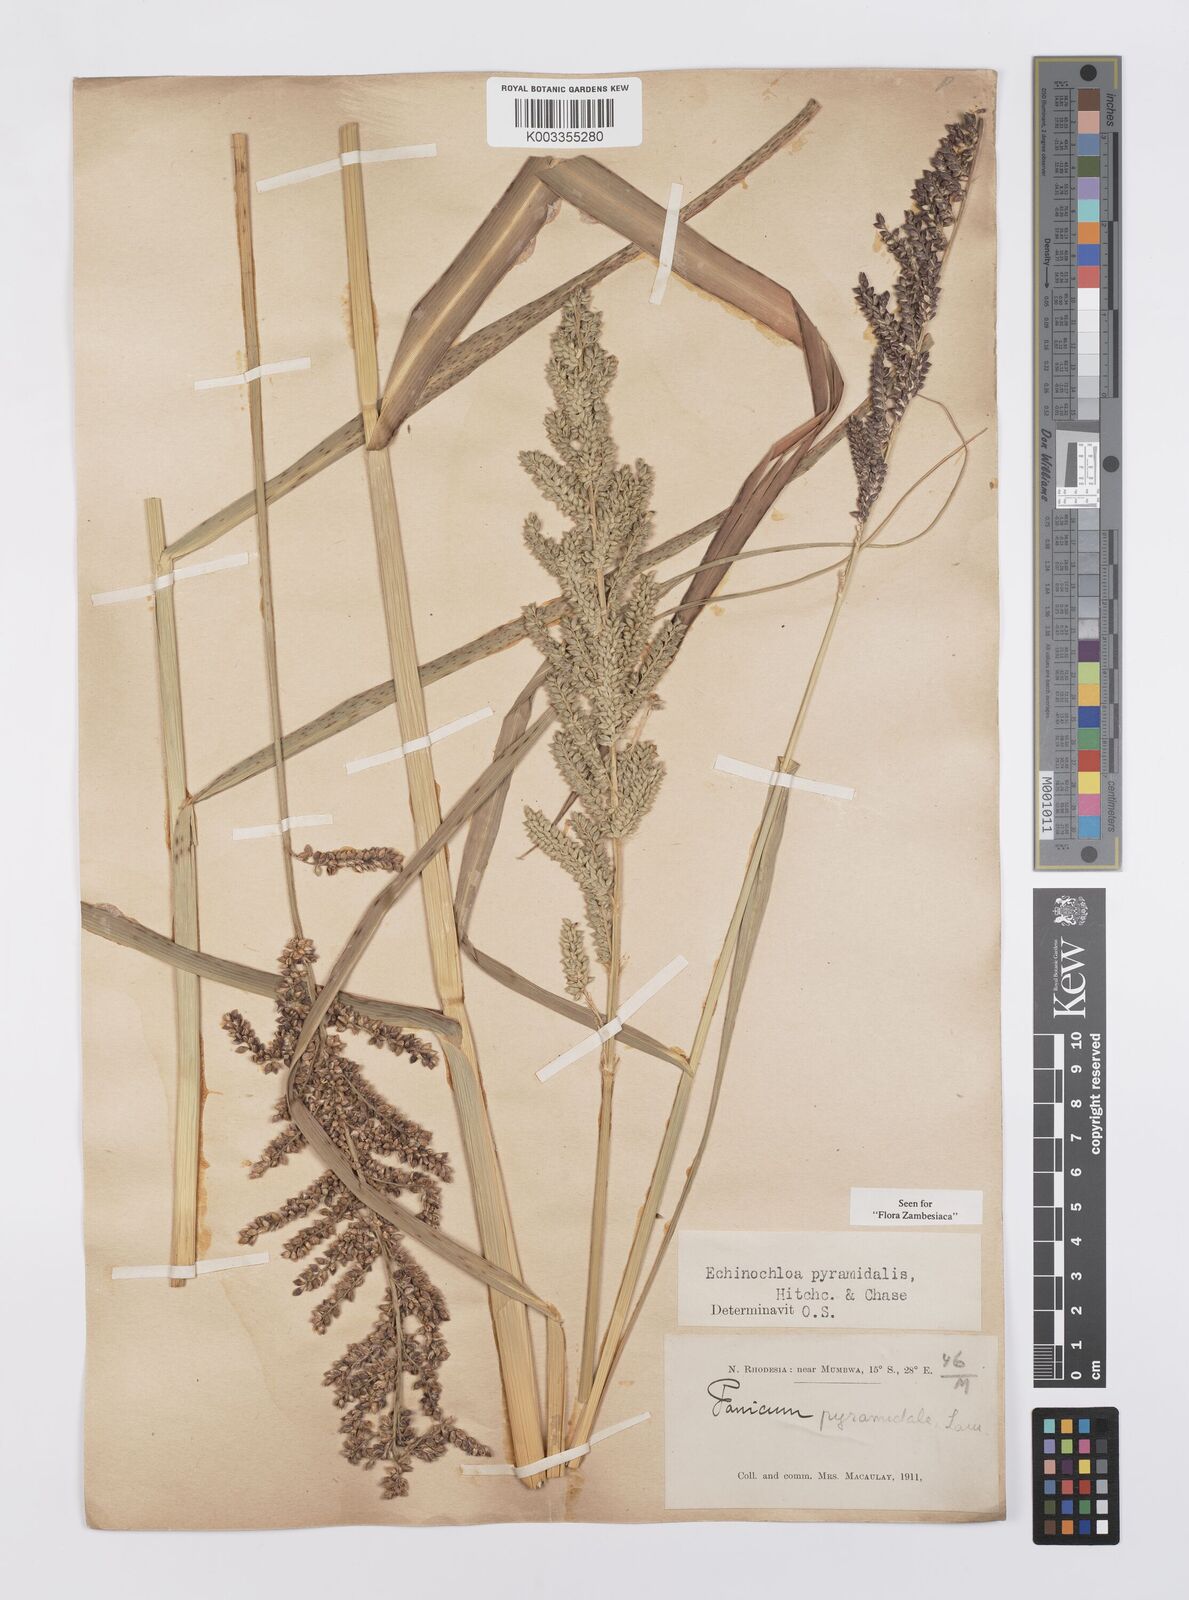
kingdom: Plantae
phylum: Tracheophyta
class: Liliopsida
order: Poales
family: Poaceae
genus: Echinochloa
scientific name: Echinochloa pyramidalis
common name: Antelope grass
